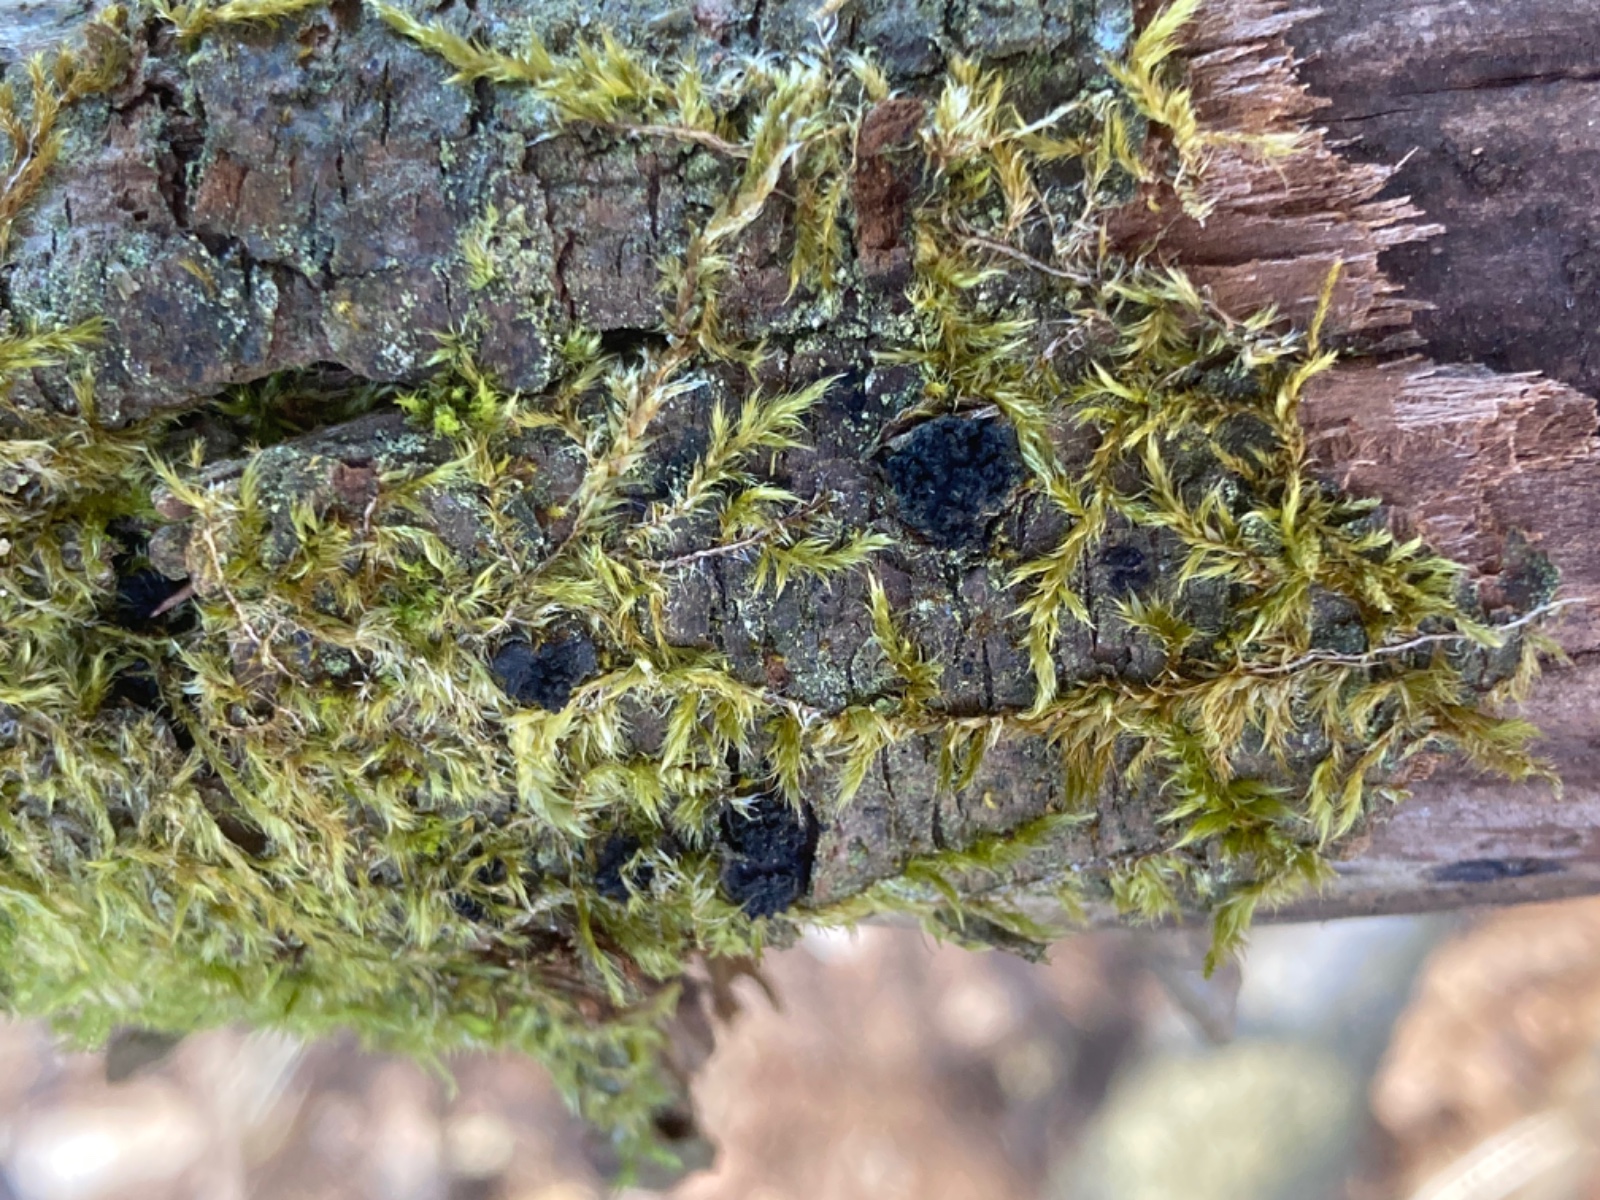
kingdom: Fungi
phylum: Ascomycota
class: Sordariomycetes
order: Xylariales
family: Diatrypaceae
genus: Eutypella
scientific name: Eutypella sorbi
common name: rønne-kulskorpe
